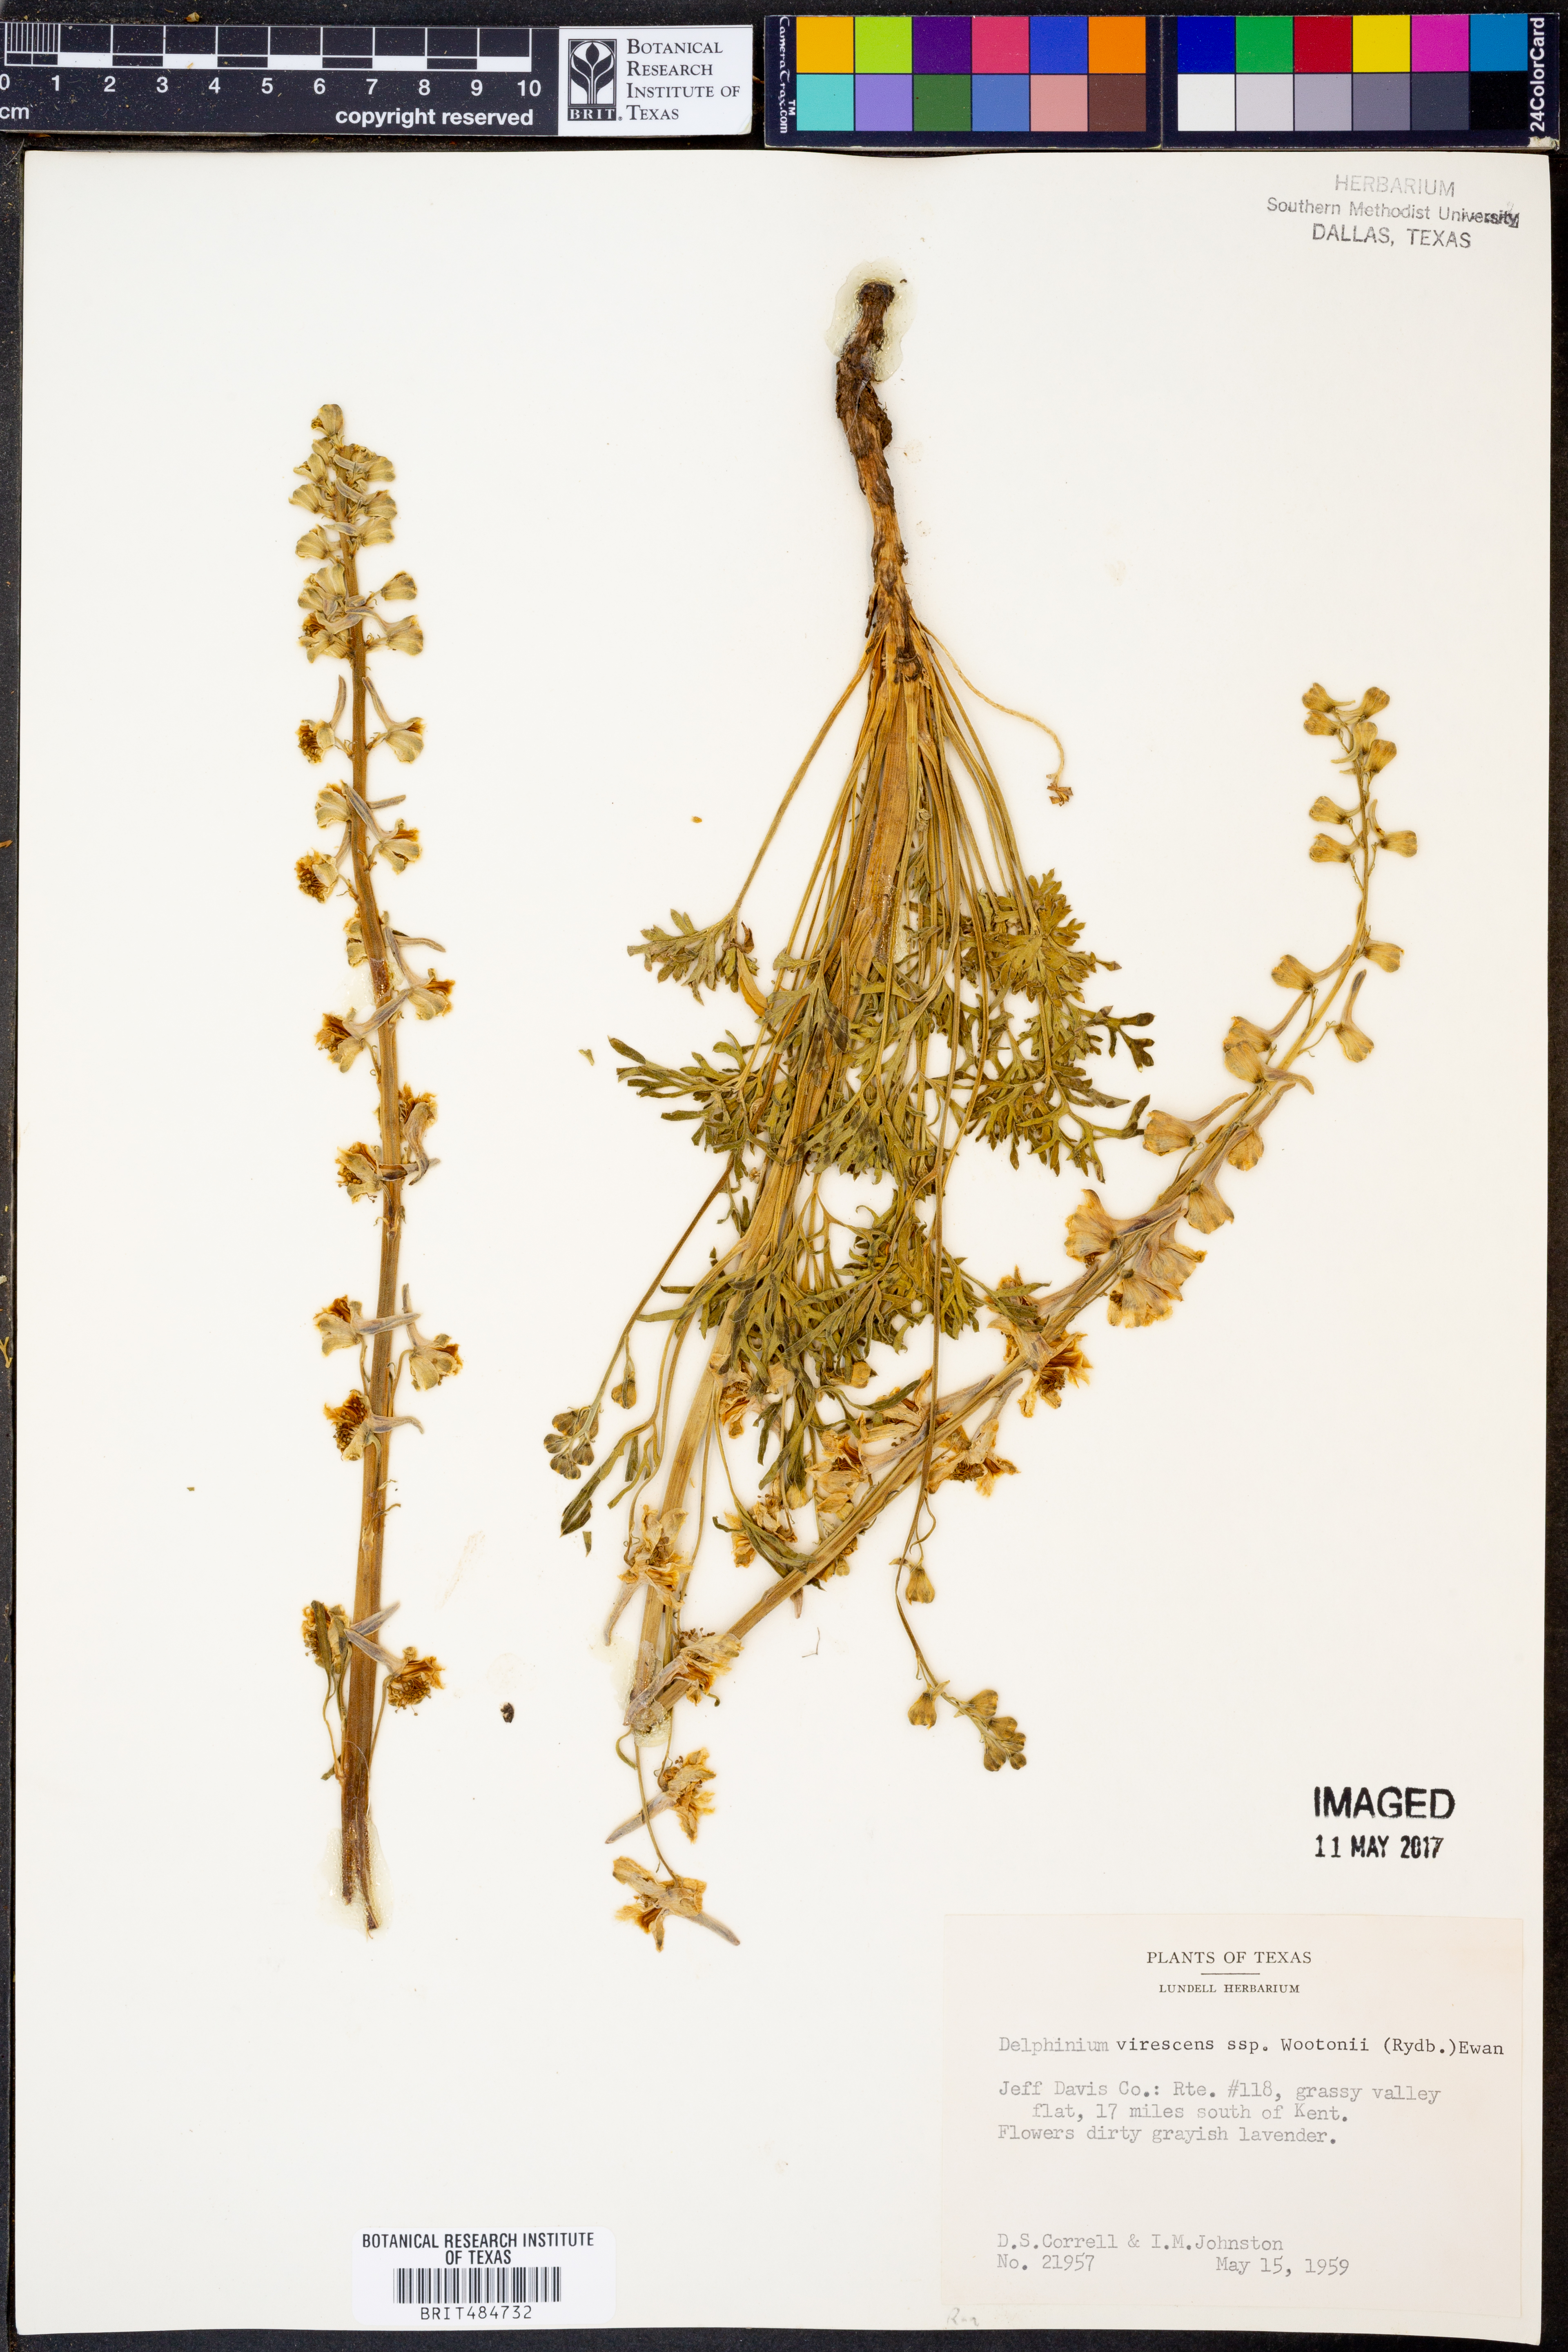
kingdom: Plantae
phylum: Tracheophyta
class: Magnoliopsida
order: Ranunculales
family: Ranunculaceae
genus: Delphinium
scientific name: Delphinium carolinianum
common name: Carolina larkspur
